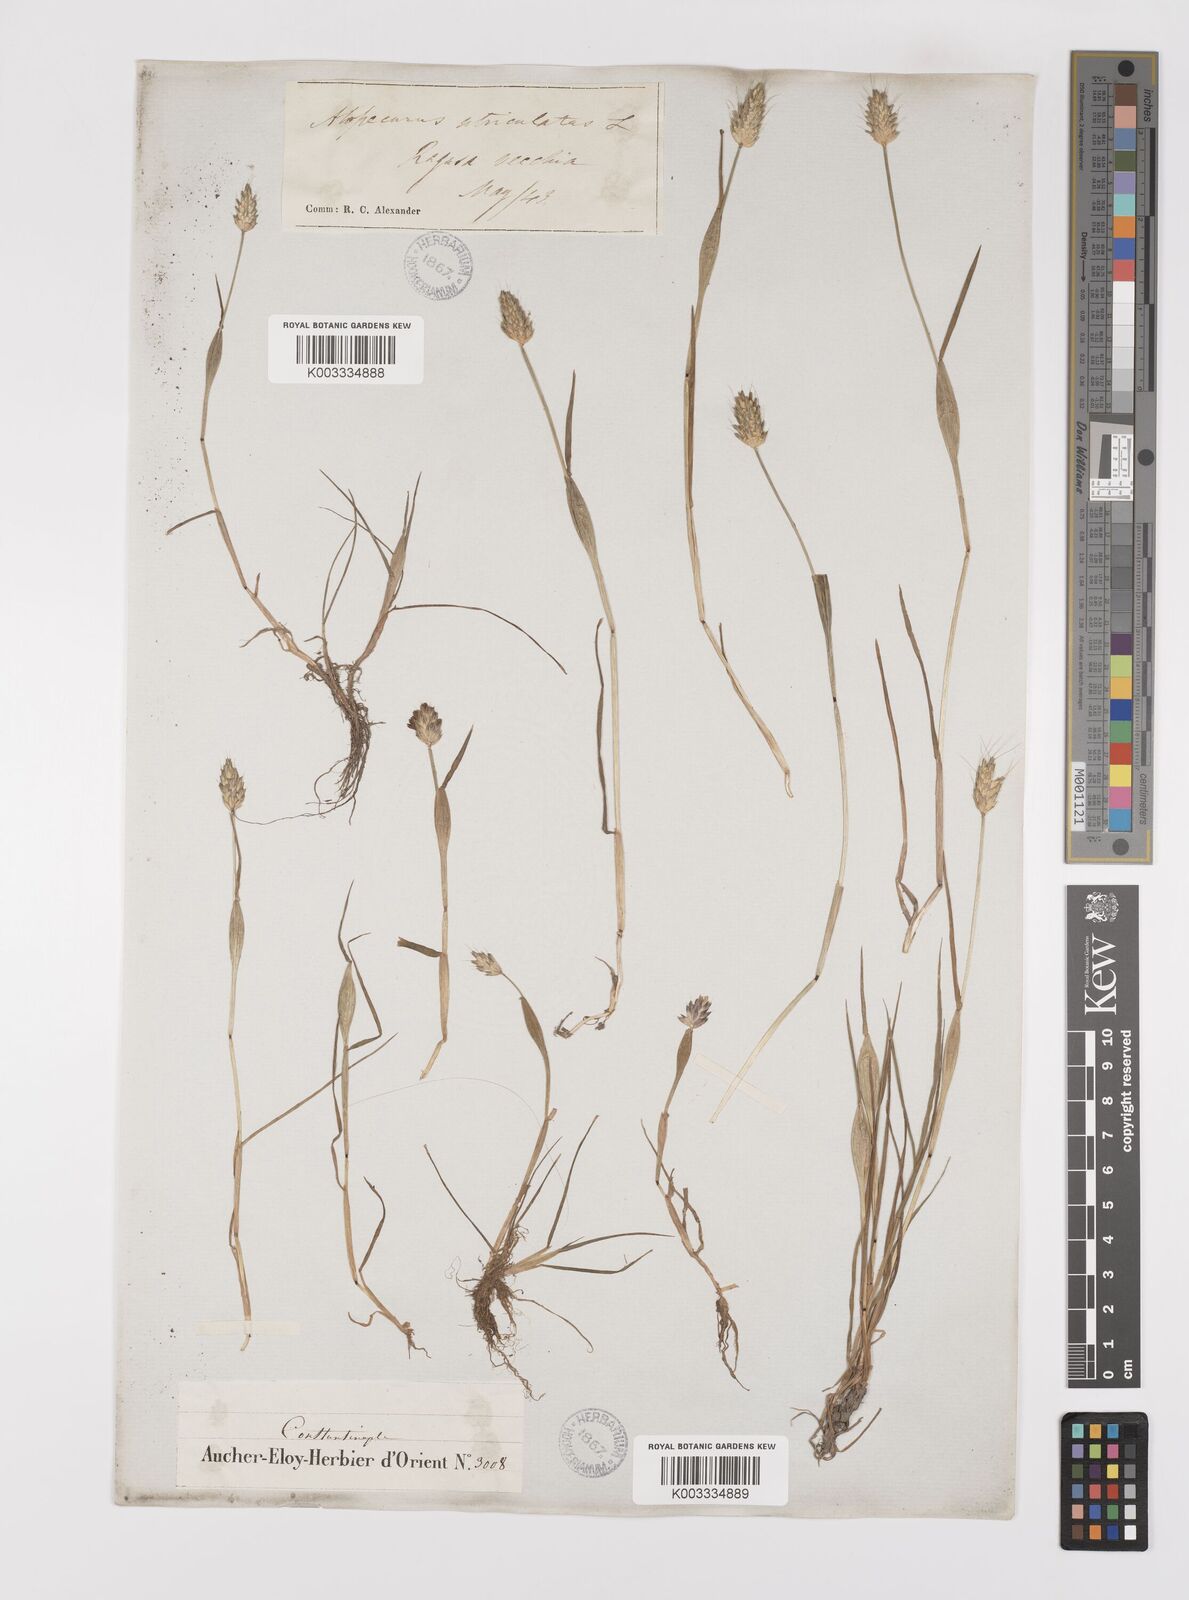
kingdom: Plantae
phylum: Tracheophyta
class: Liliopsida
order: Poales
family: Poaceae
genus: Alopecurus
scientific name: Alopecurus rendlei
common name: Rendle's meadow foxtail
